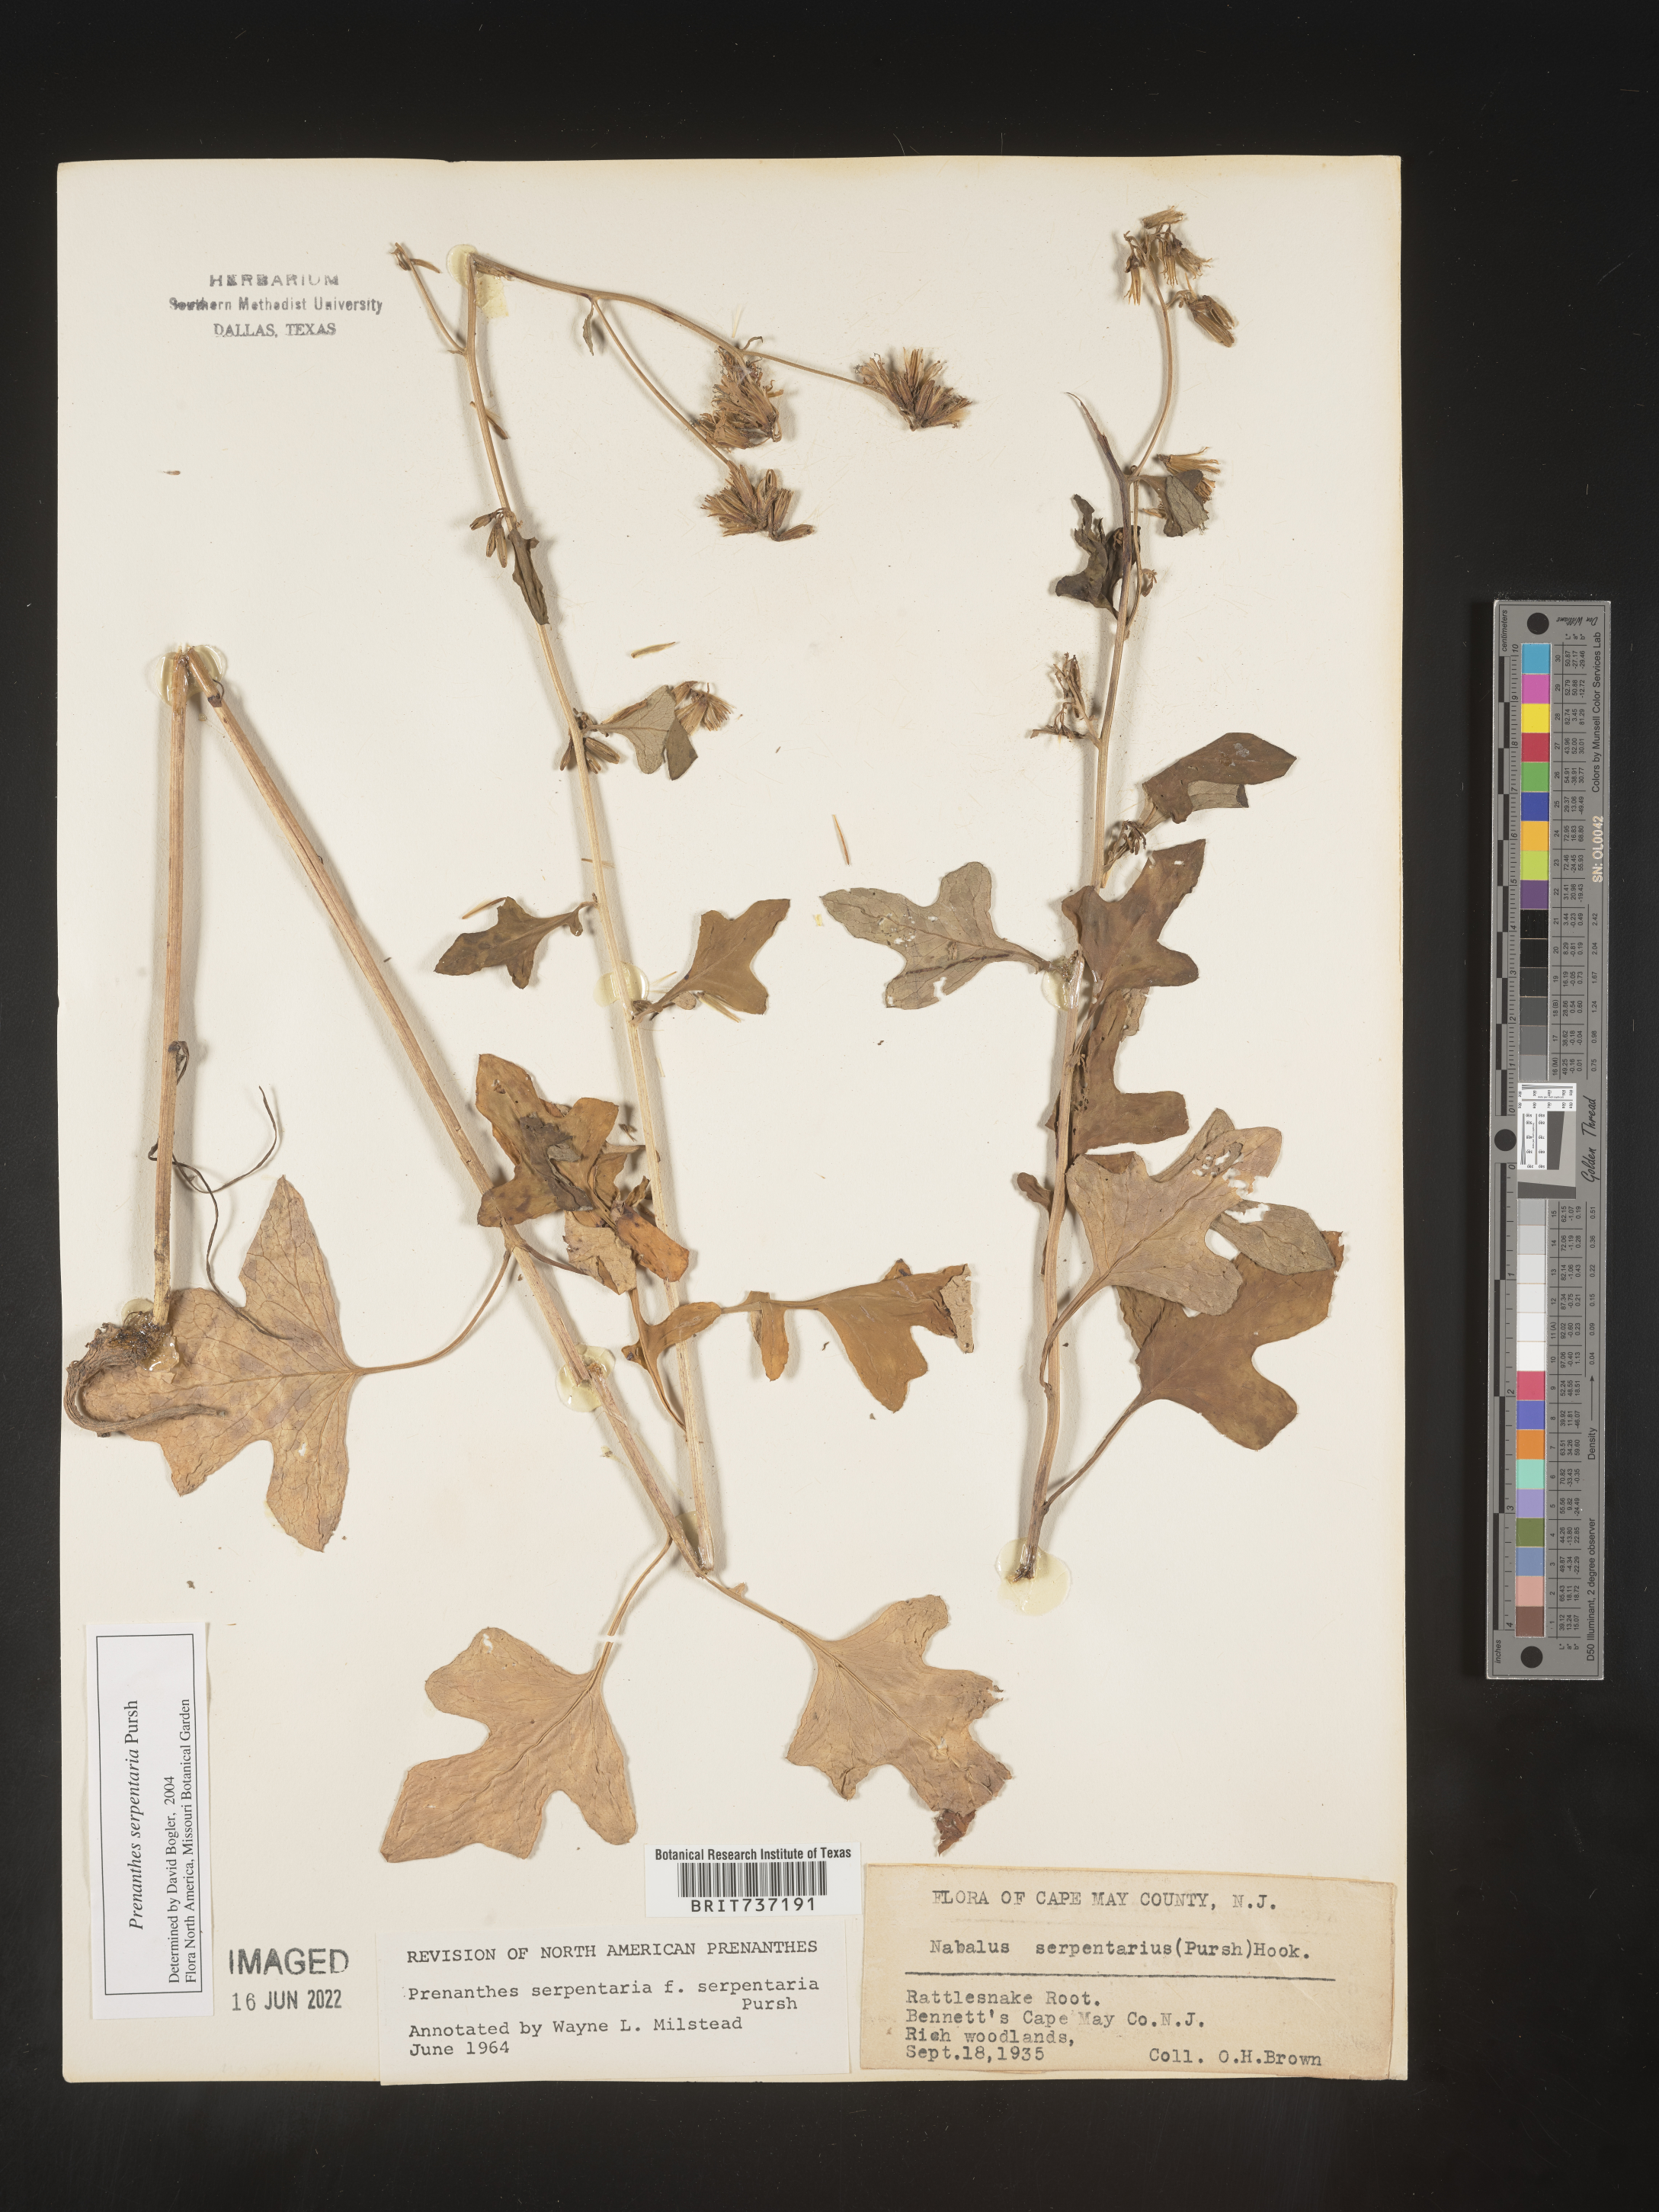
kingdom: Plantae
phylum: Tracheophyta
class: Magnoliopsida
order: Asterales
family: Asteraceae
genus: Nabalus
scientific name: Nabalus serpentarius
